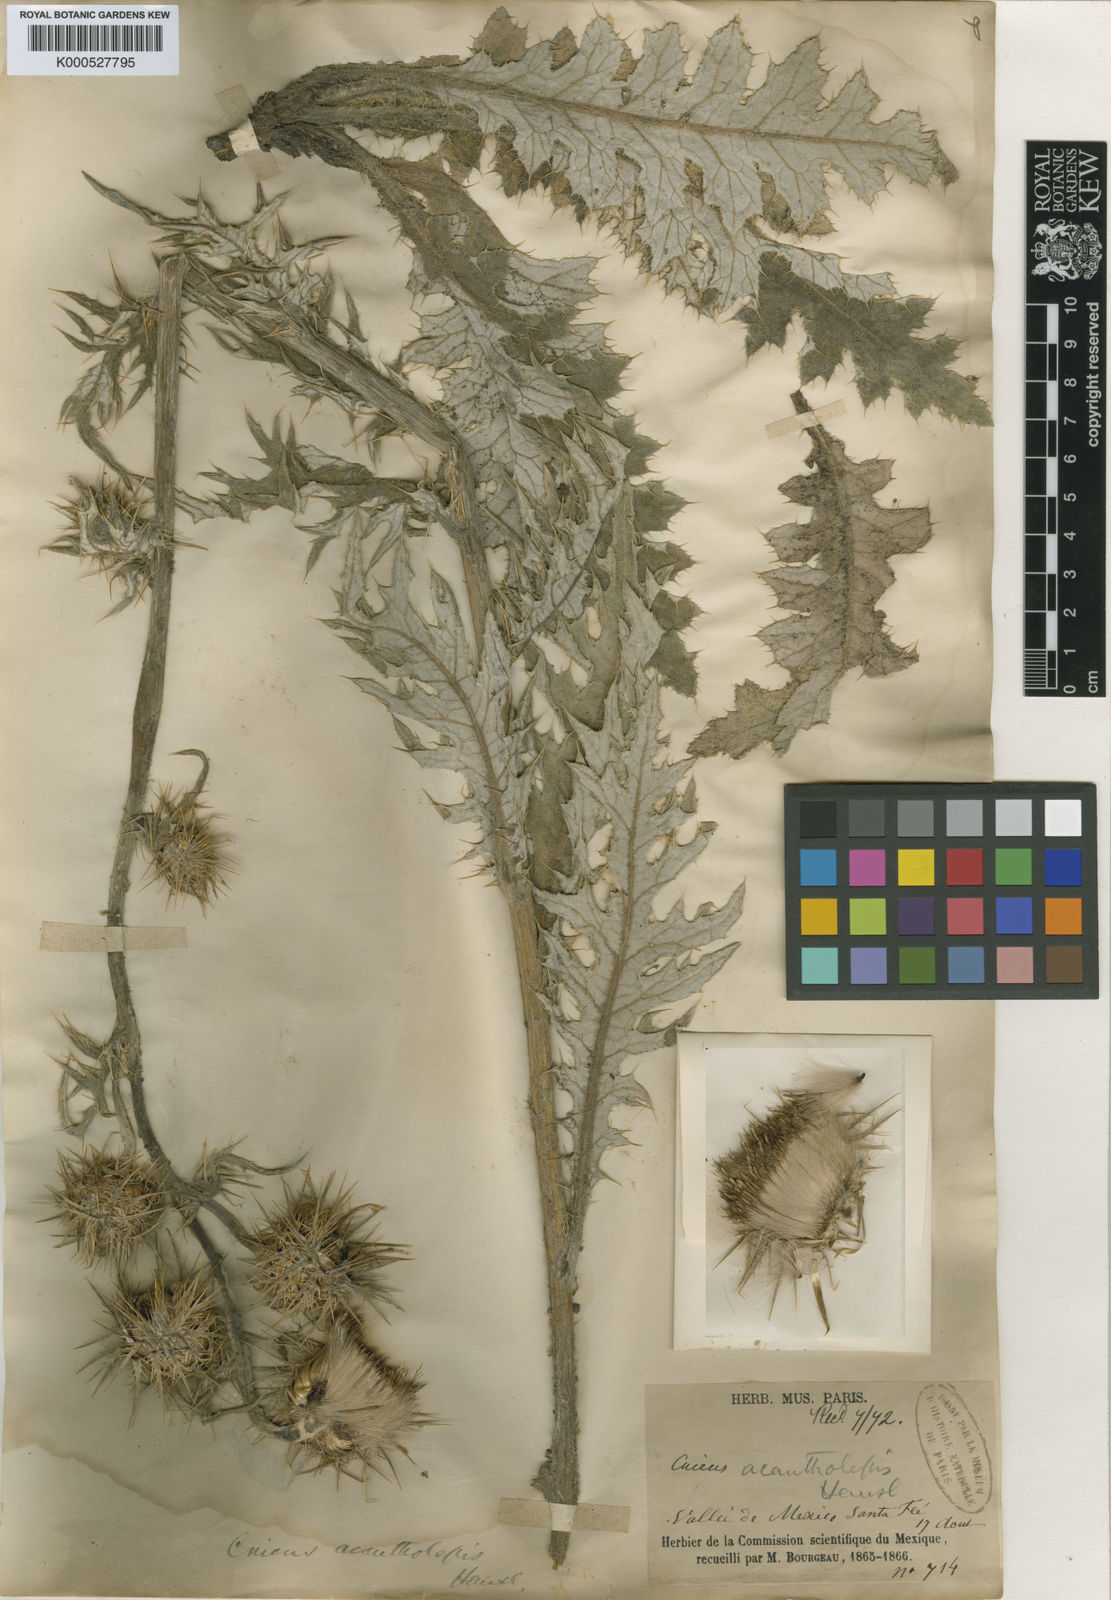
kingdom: Plantae
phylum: Tracheophyta
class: Magnoliopsida
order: Asterales
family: Asteraceae
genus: Cirsium
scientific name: Cirsium acantholepis
